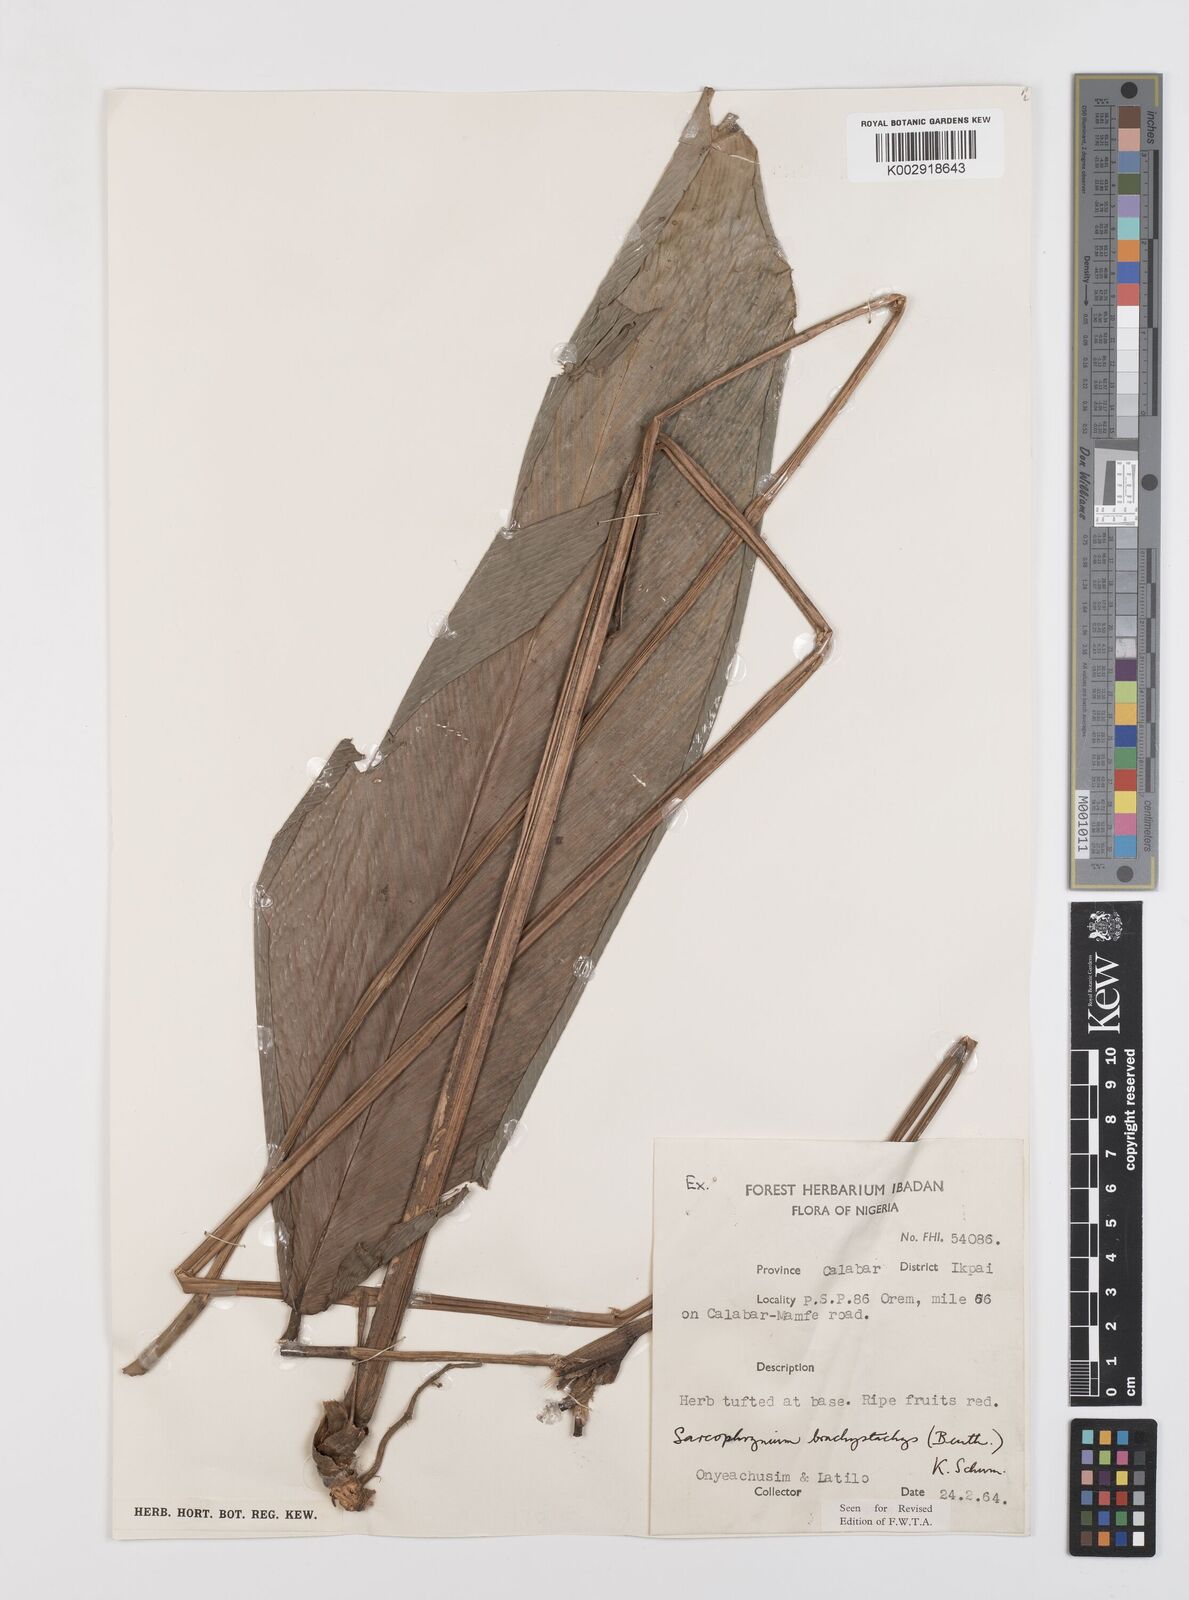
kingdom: Plantae
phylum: Tracheophyta
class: Liliopsida
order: Zingiberales
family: Marantaceae
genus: Sarcophrynium
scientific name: Sarcophrynium brachystachyum
